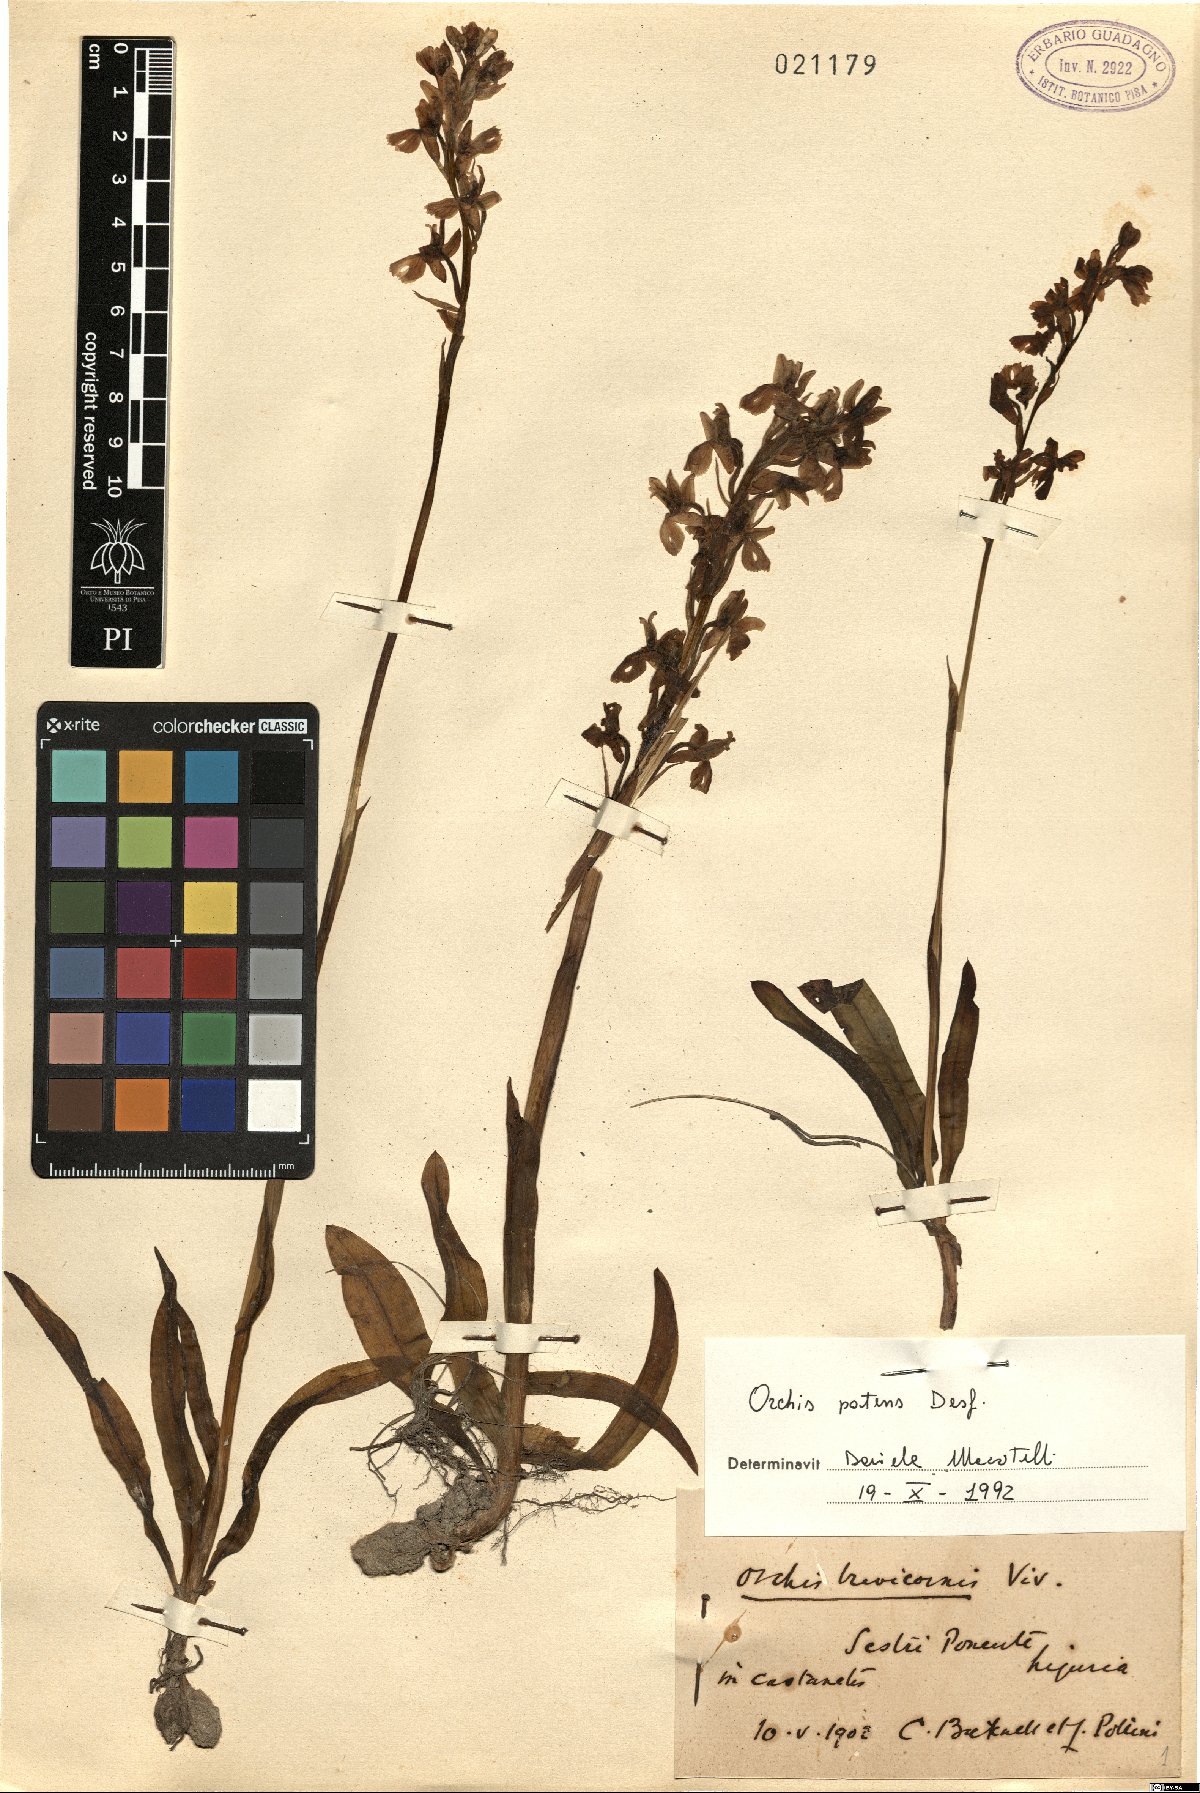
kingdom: Plantae
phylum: Tracheophyta
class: Liliopsida
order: Asparagales
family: Orchidaceae
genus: Orchis
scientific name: Orchis patens
